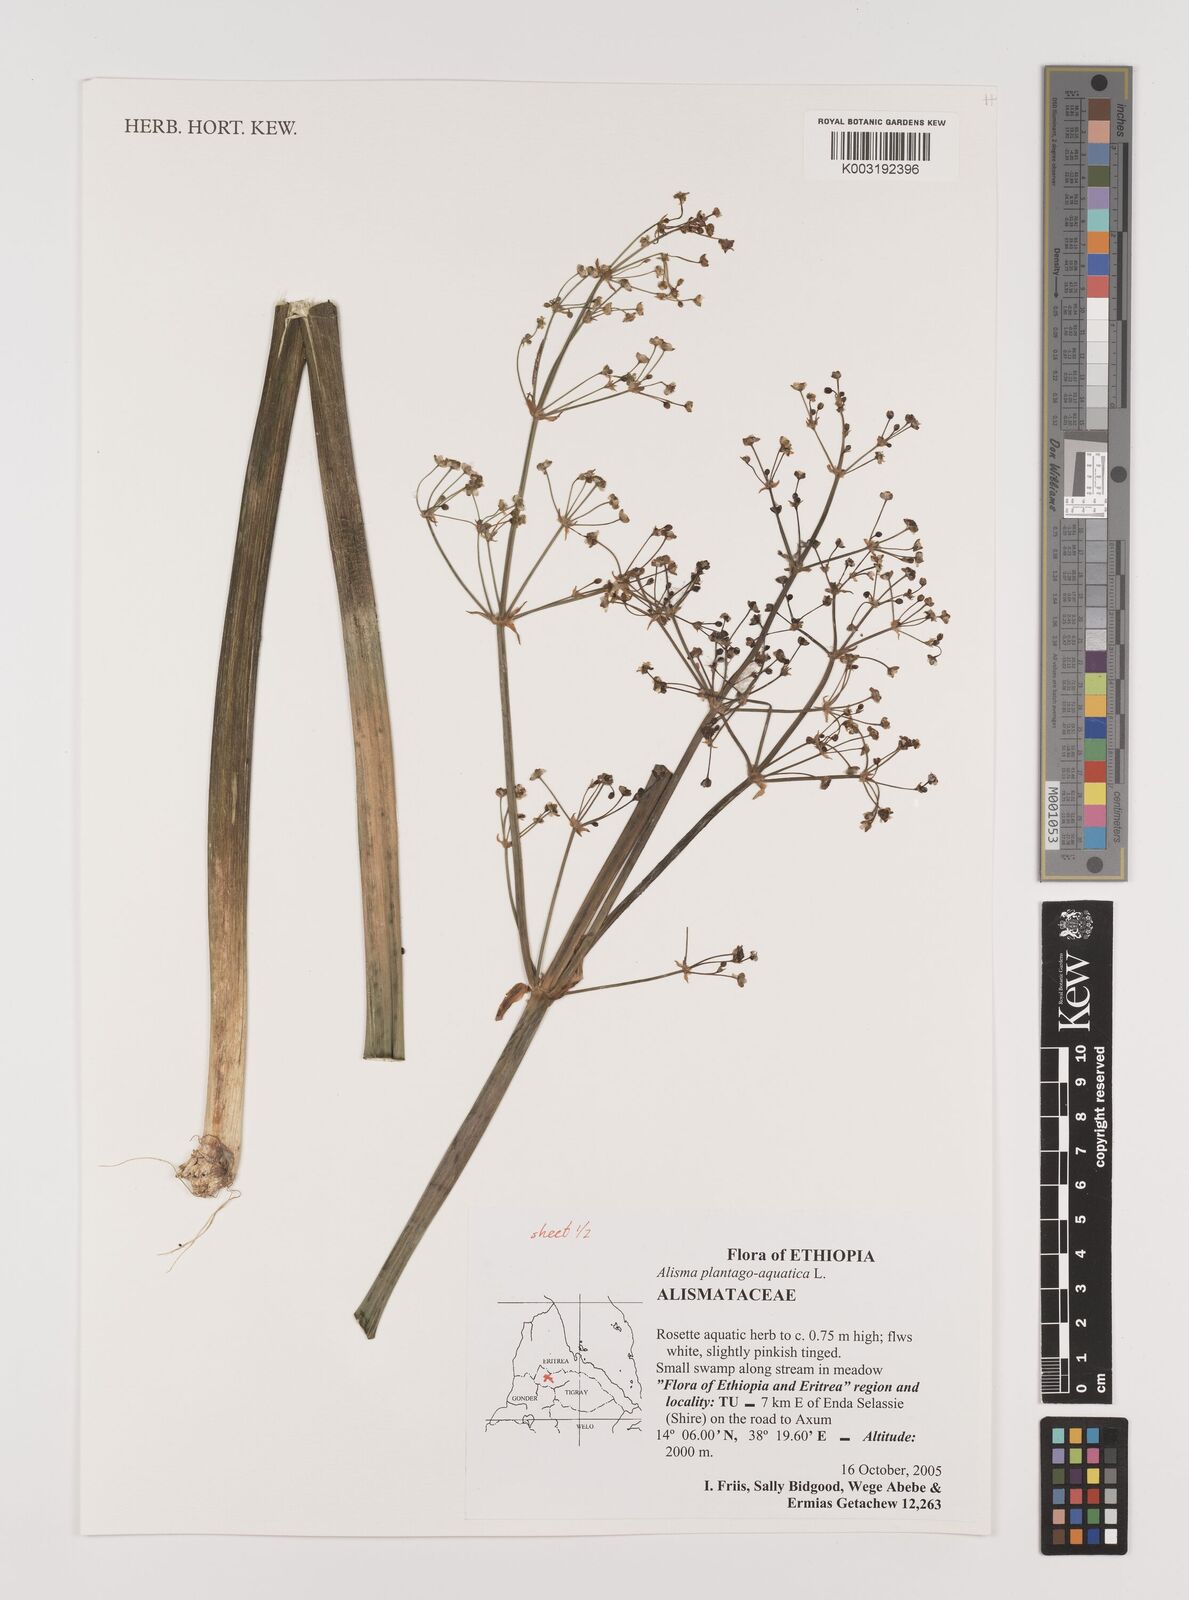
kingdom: Plantae
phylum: Tracheophyta
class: Liliopsida
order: Alismatales
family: Alismataceae
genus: Alisma
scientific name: Alisma plantago-aquatica
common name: Water-plantain
